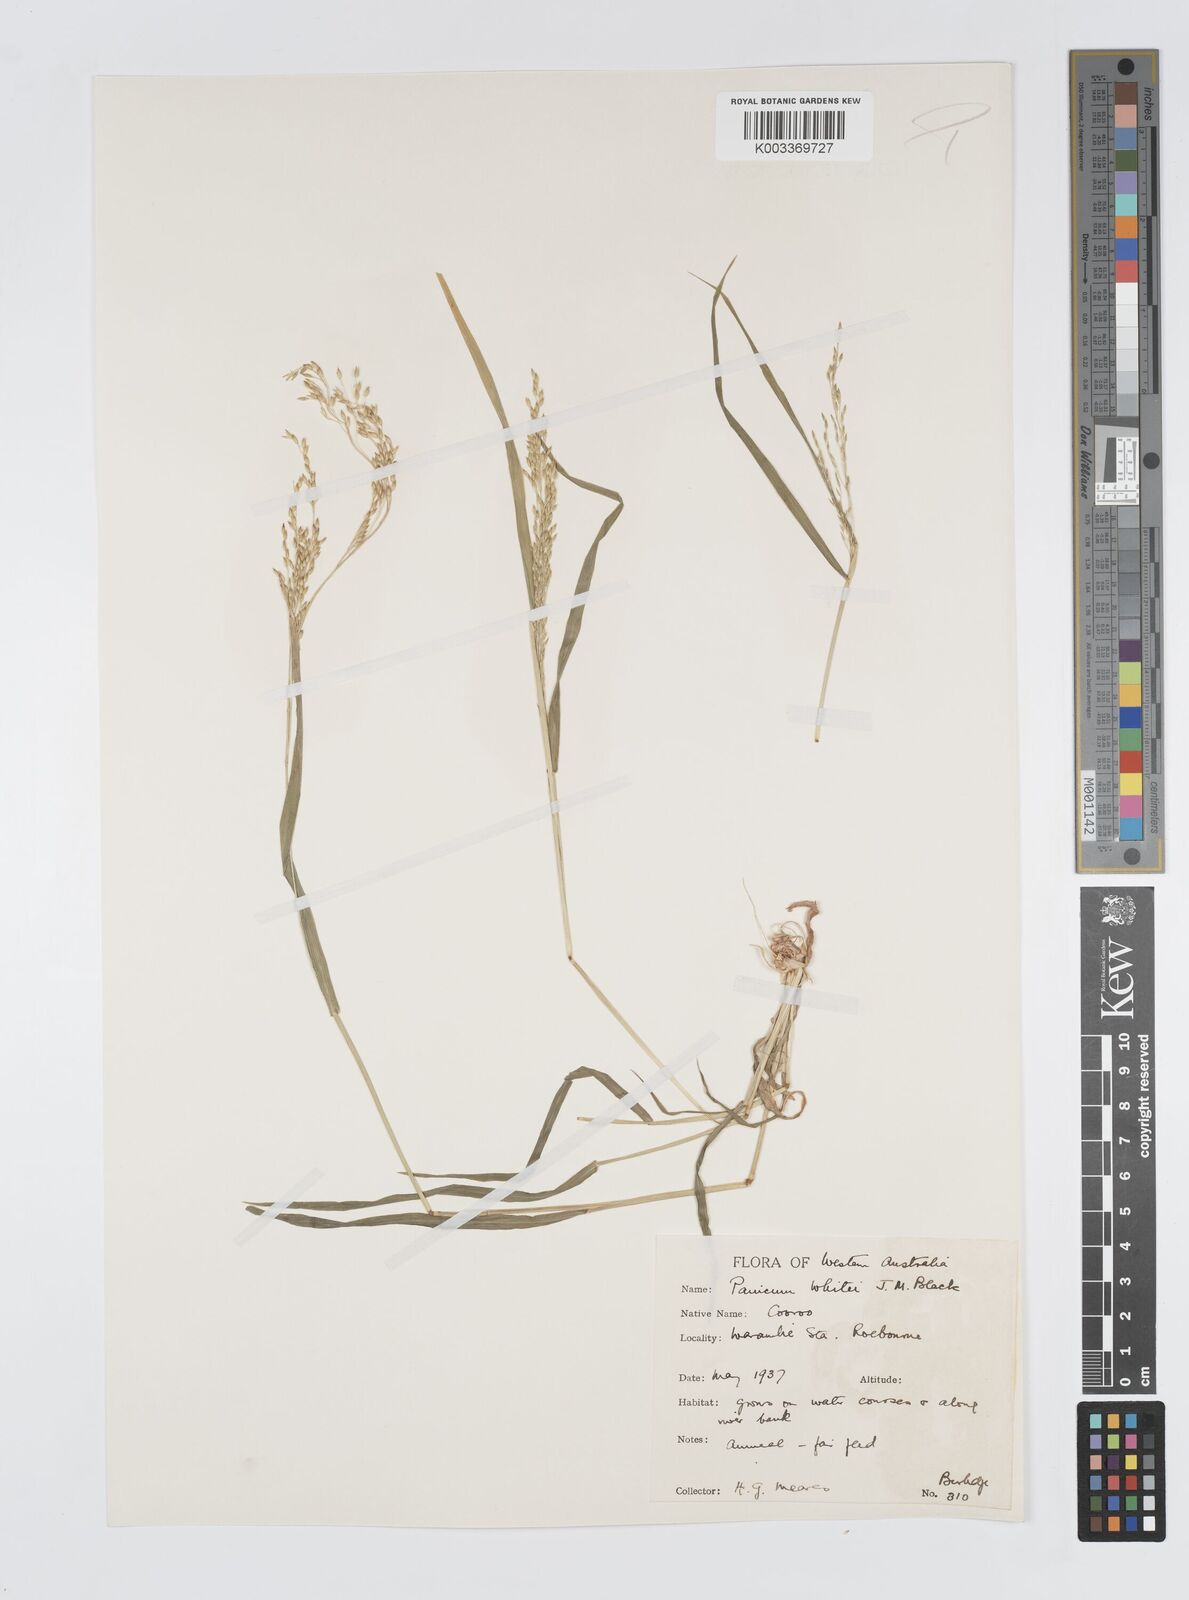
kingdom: Plantae
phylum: Tracheophyta
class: Liliopsida
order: Poales
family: Poaceae
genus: Panicum
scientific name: Panicum laevinode
